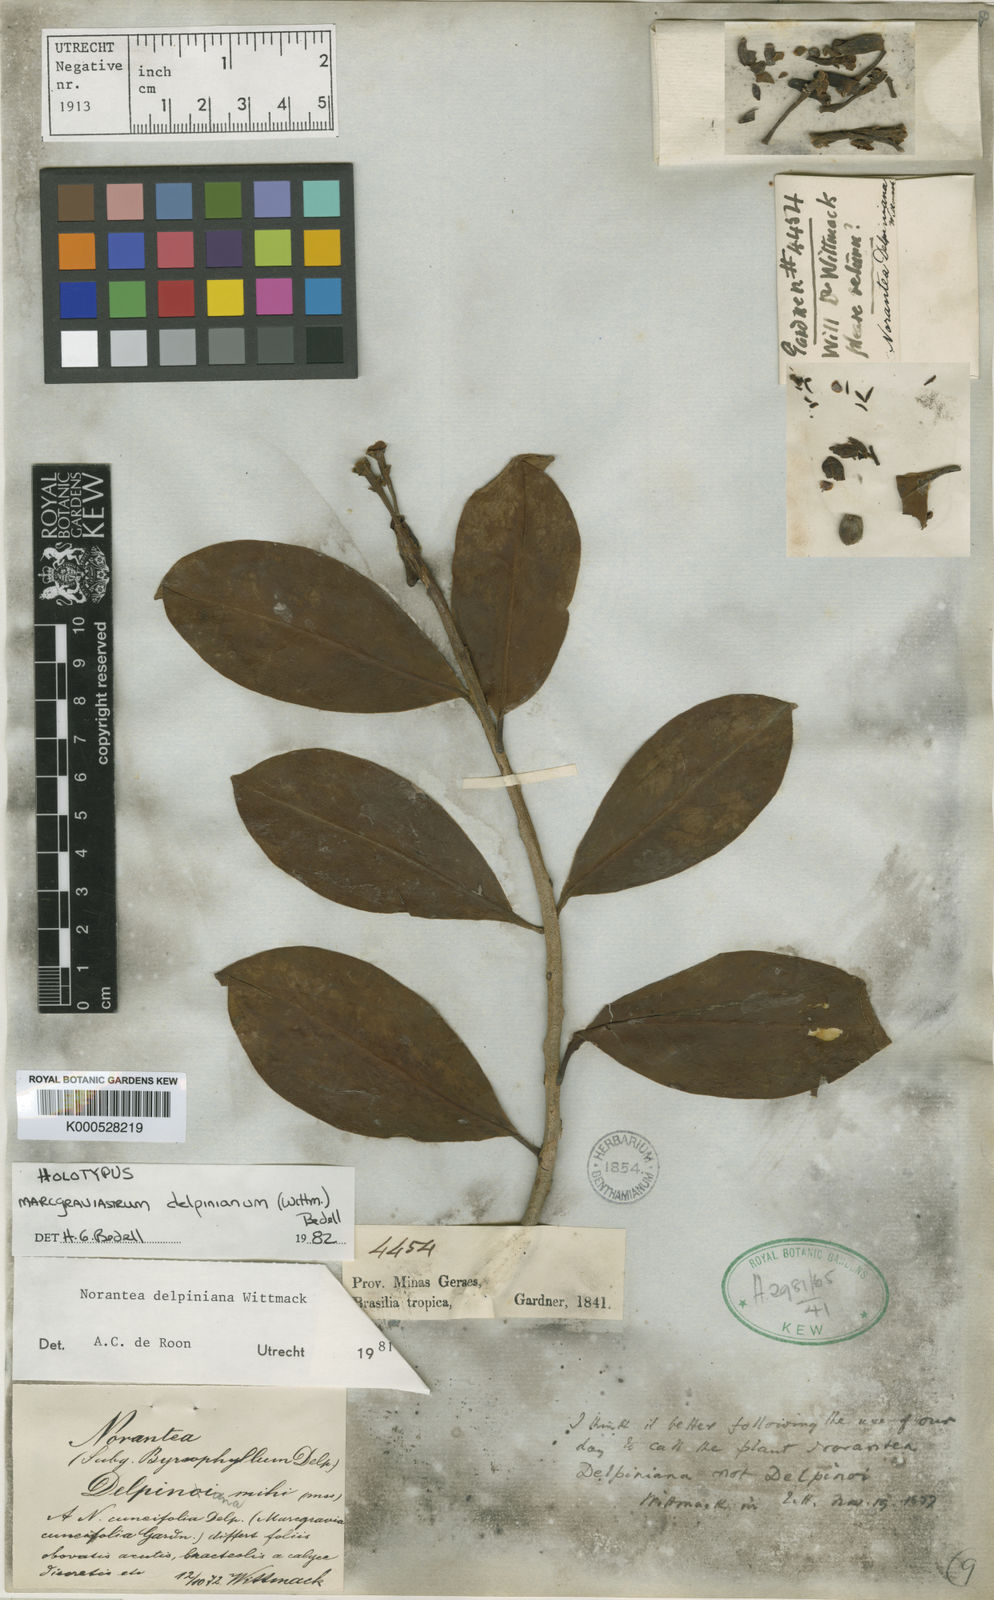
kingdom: Plantae
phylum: Tracheophyta
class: Magnoliopsida
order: Ericales
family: Marcgraviaceae
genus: Marcgraviastrum
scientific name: Marcgraviastrum delpinianum
